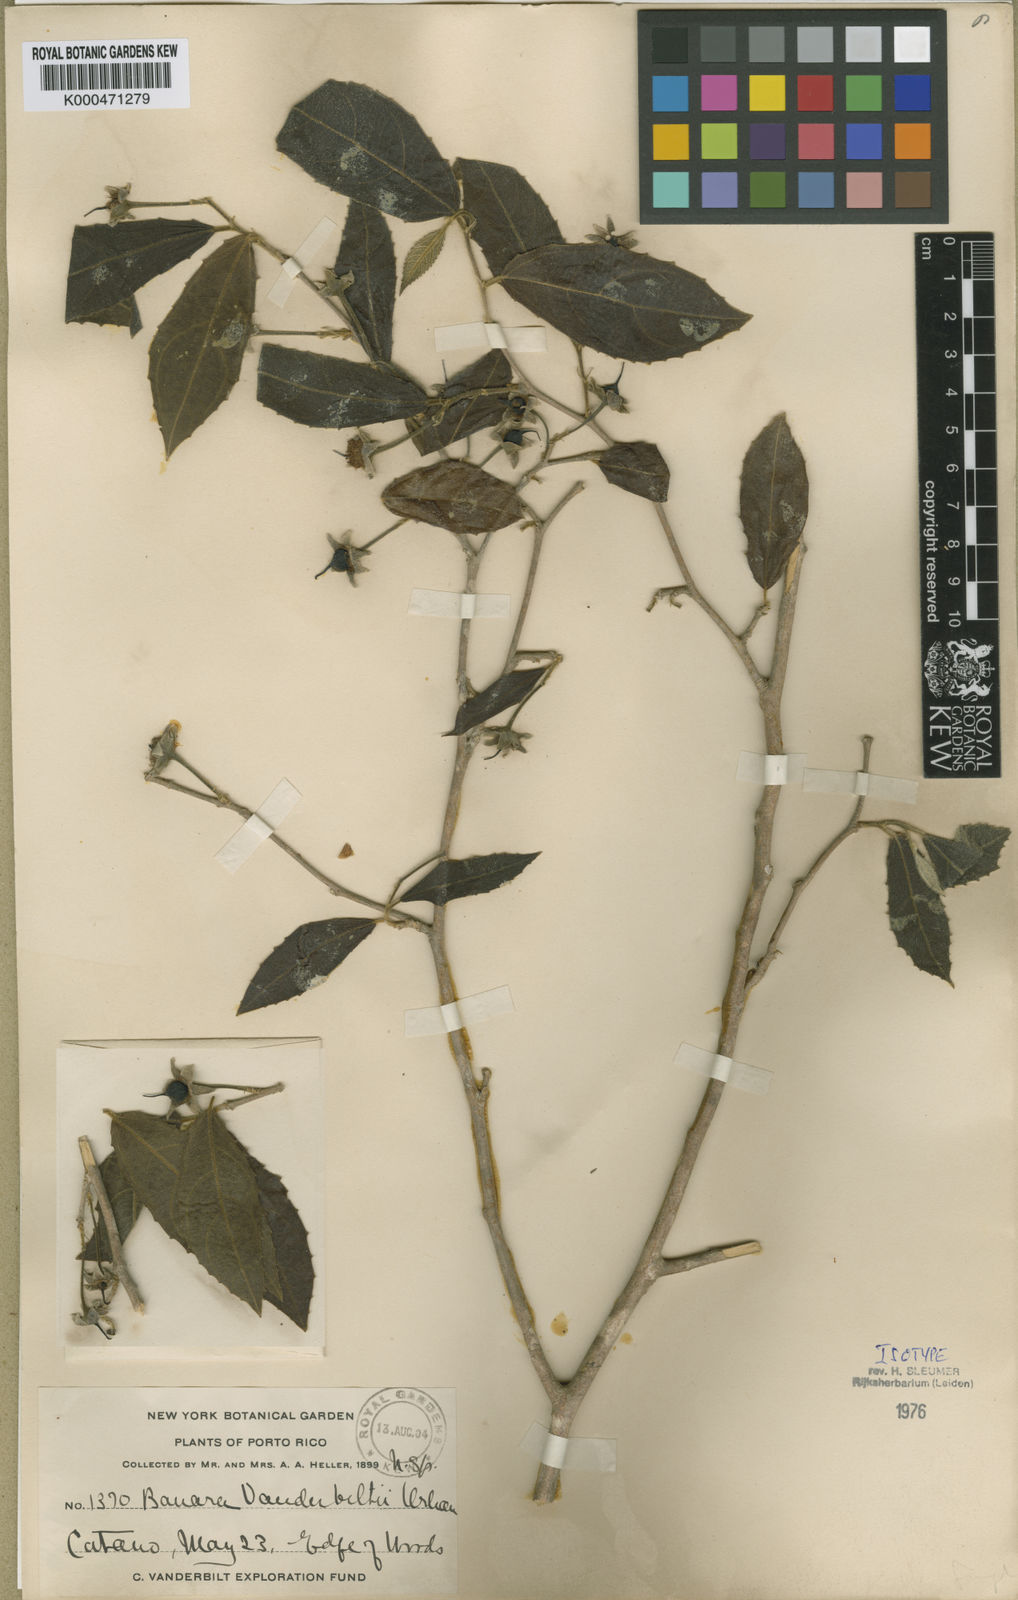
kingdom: Plantae
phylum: Tracheophyta
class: Magnoliopsida
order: Malpighiales
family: Salicaceae
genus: Banara
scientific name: Banara vanderbiltii
